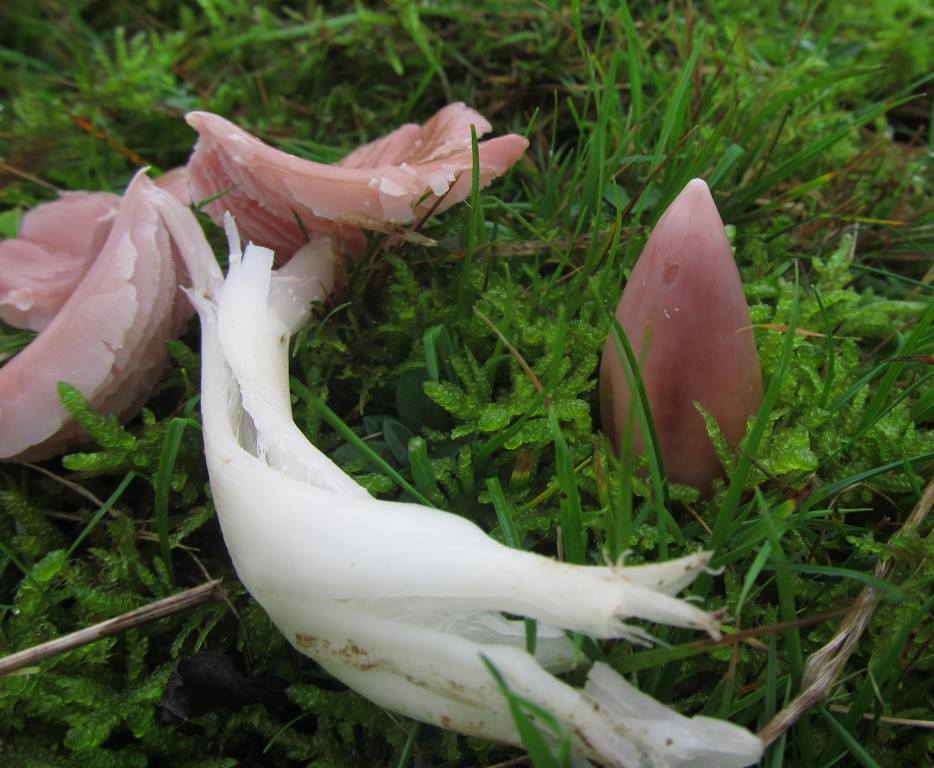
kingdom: Fungi
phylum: Basidiomycota
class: Agaricomycetes
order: Agaricales
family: Hygrophoraceae
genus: Porpolomopsis
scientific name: Porpolomopsis calyptriformis
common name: rosenrød vokshat
